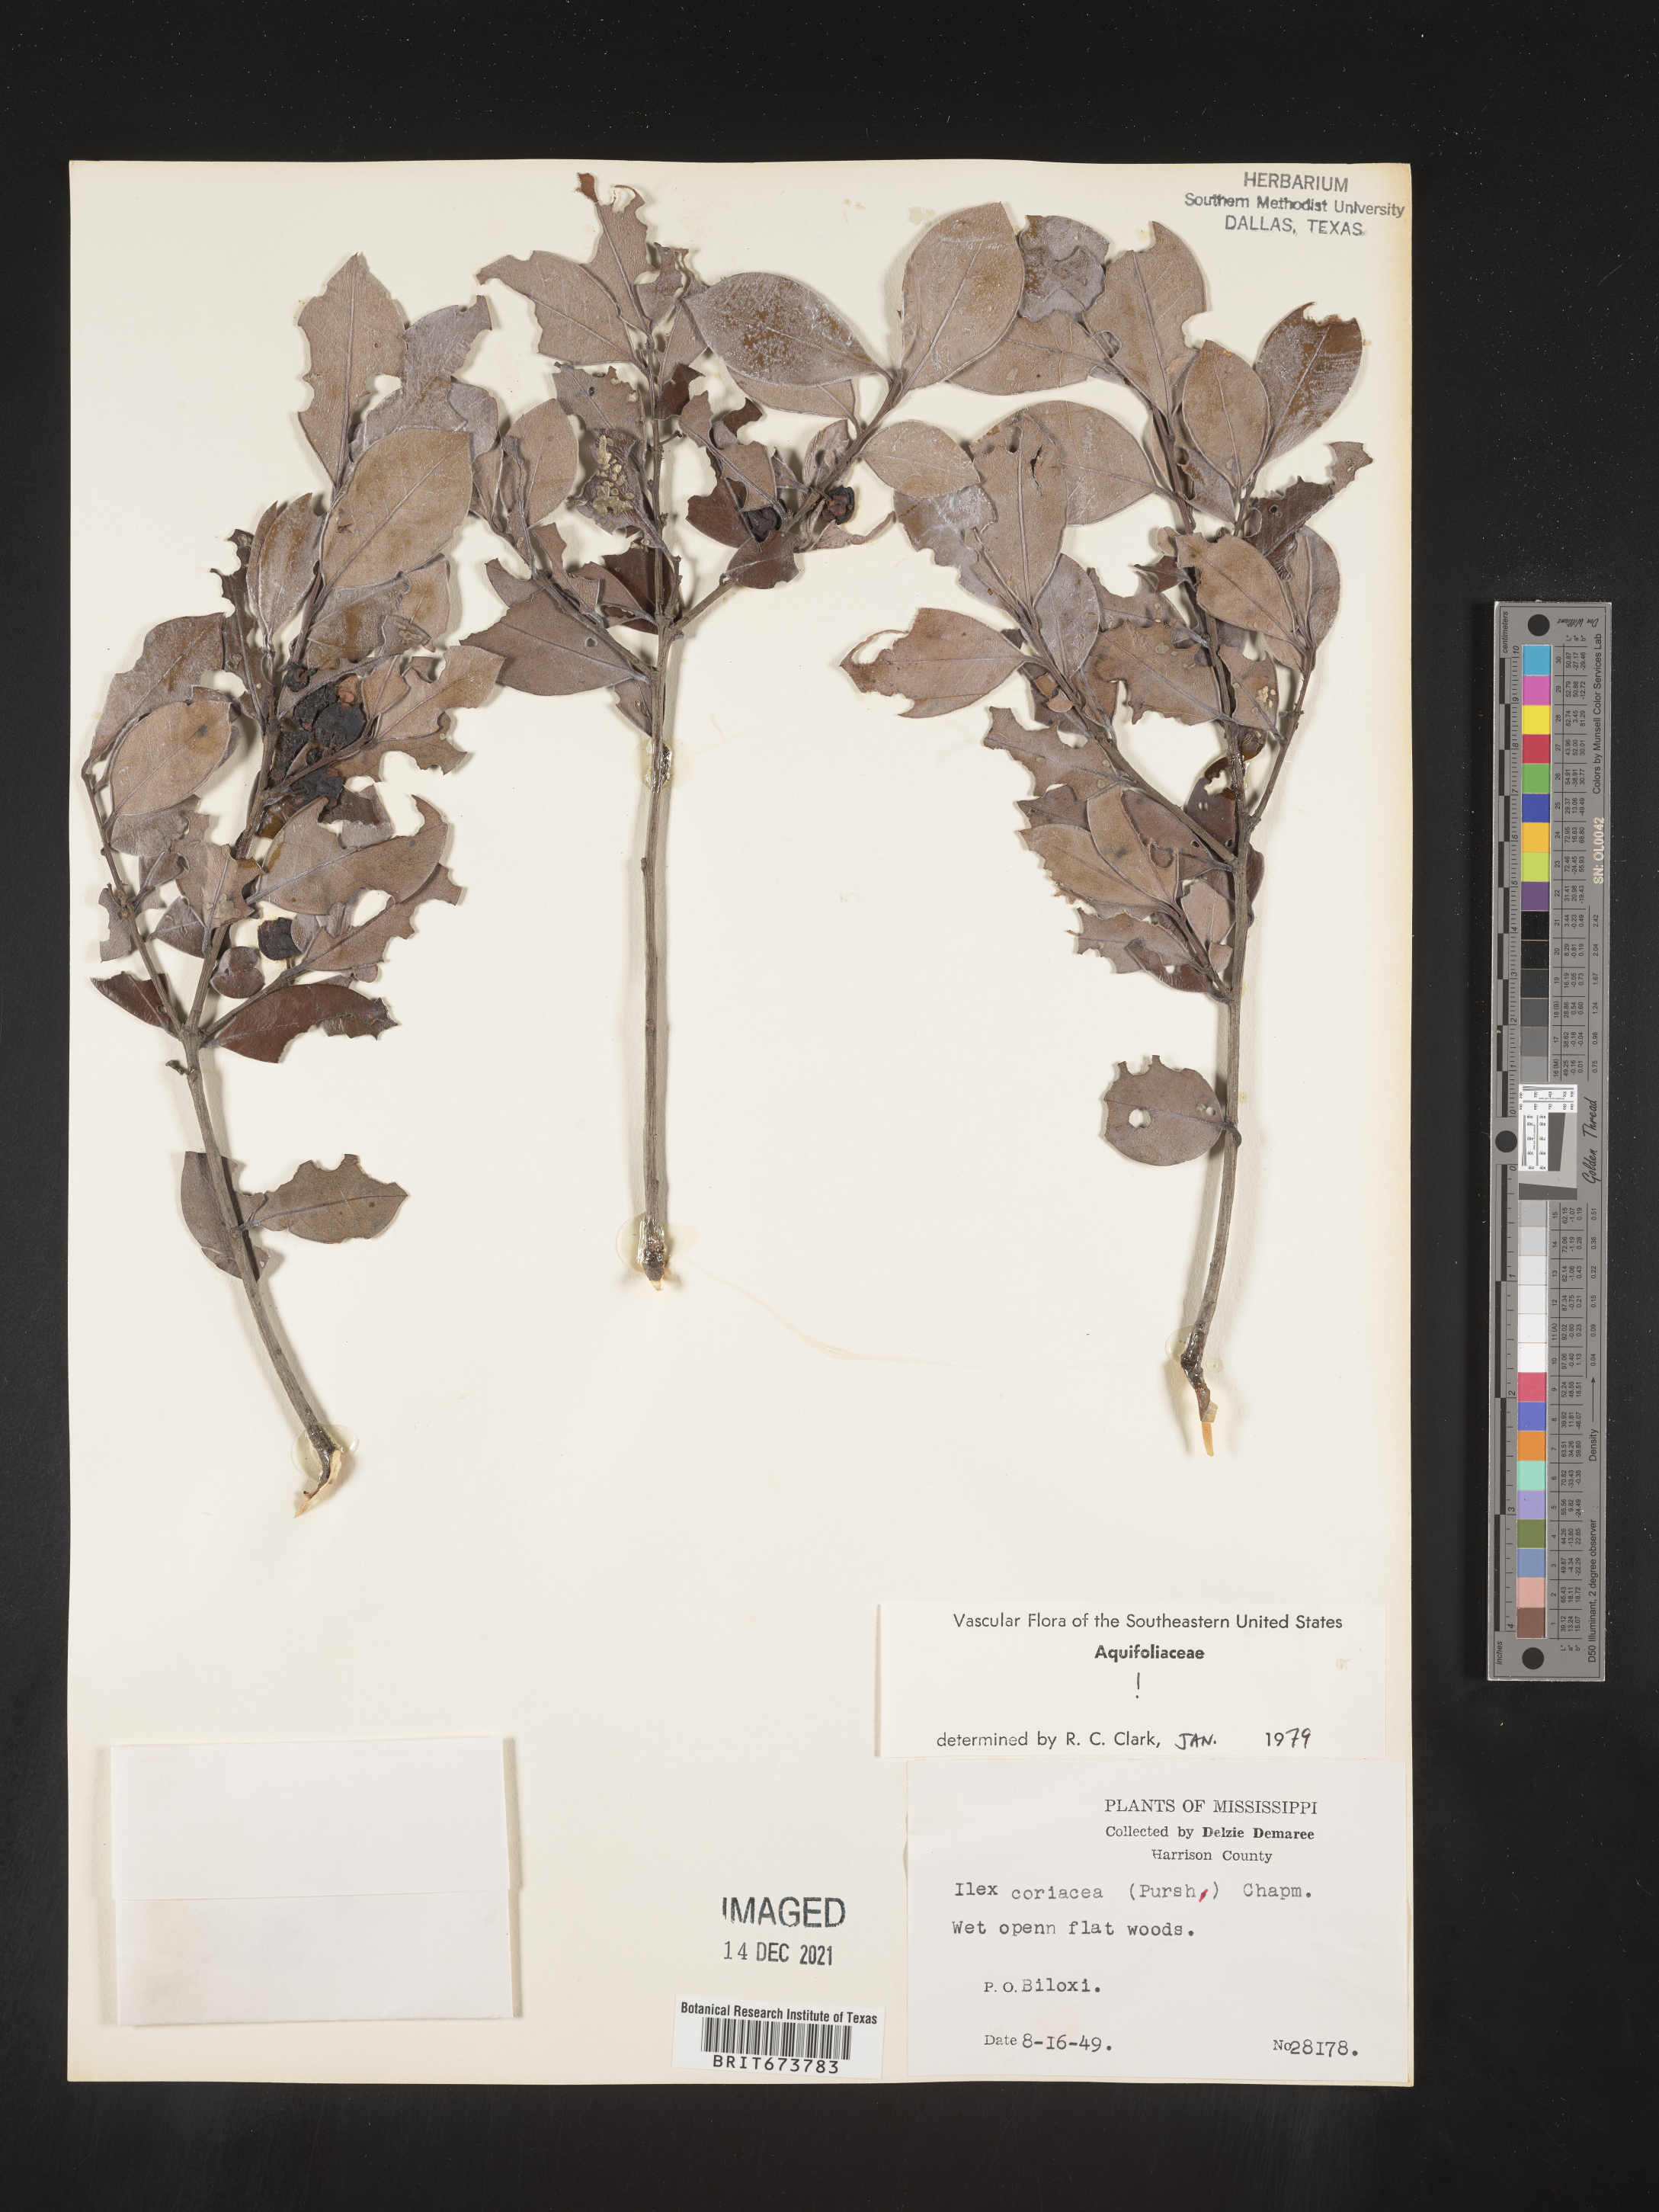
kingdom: Plantae
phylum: Tracheophyta
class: Magnoliopsida
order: Aquifoliales
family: Aquifoliaceae
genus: Ilex
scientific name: Ilex coriacea
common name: Sweet gallberry
